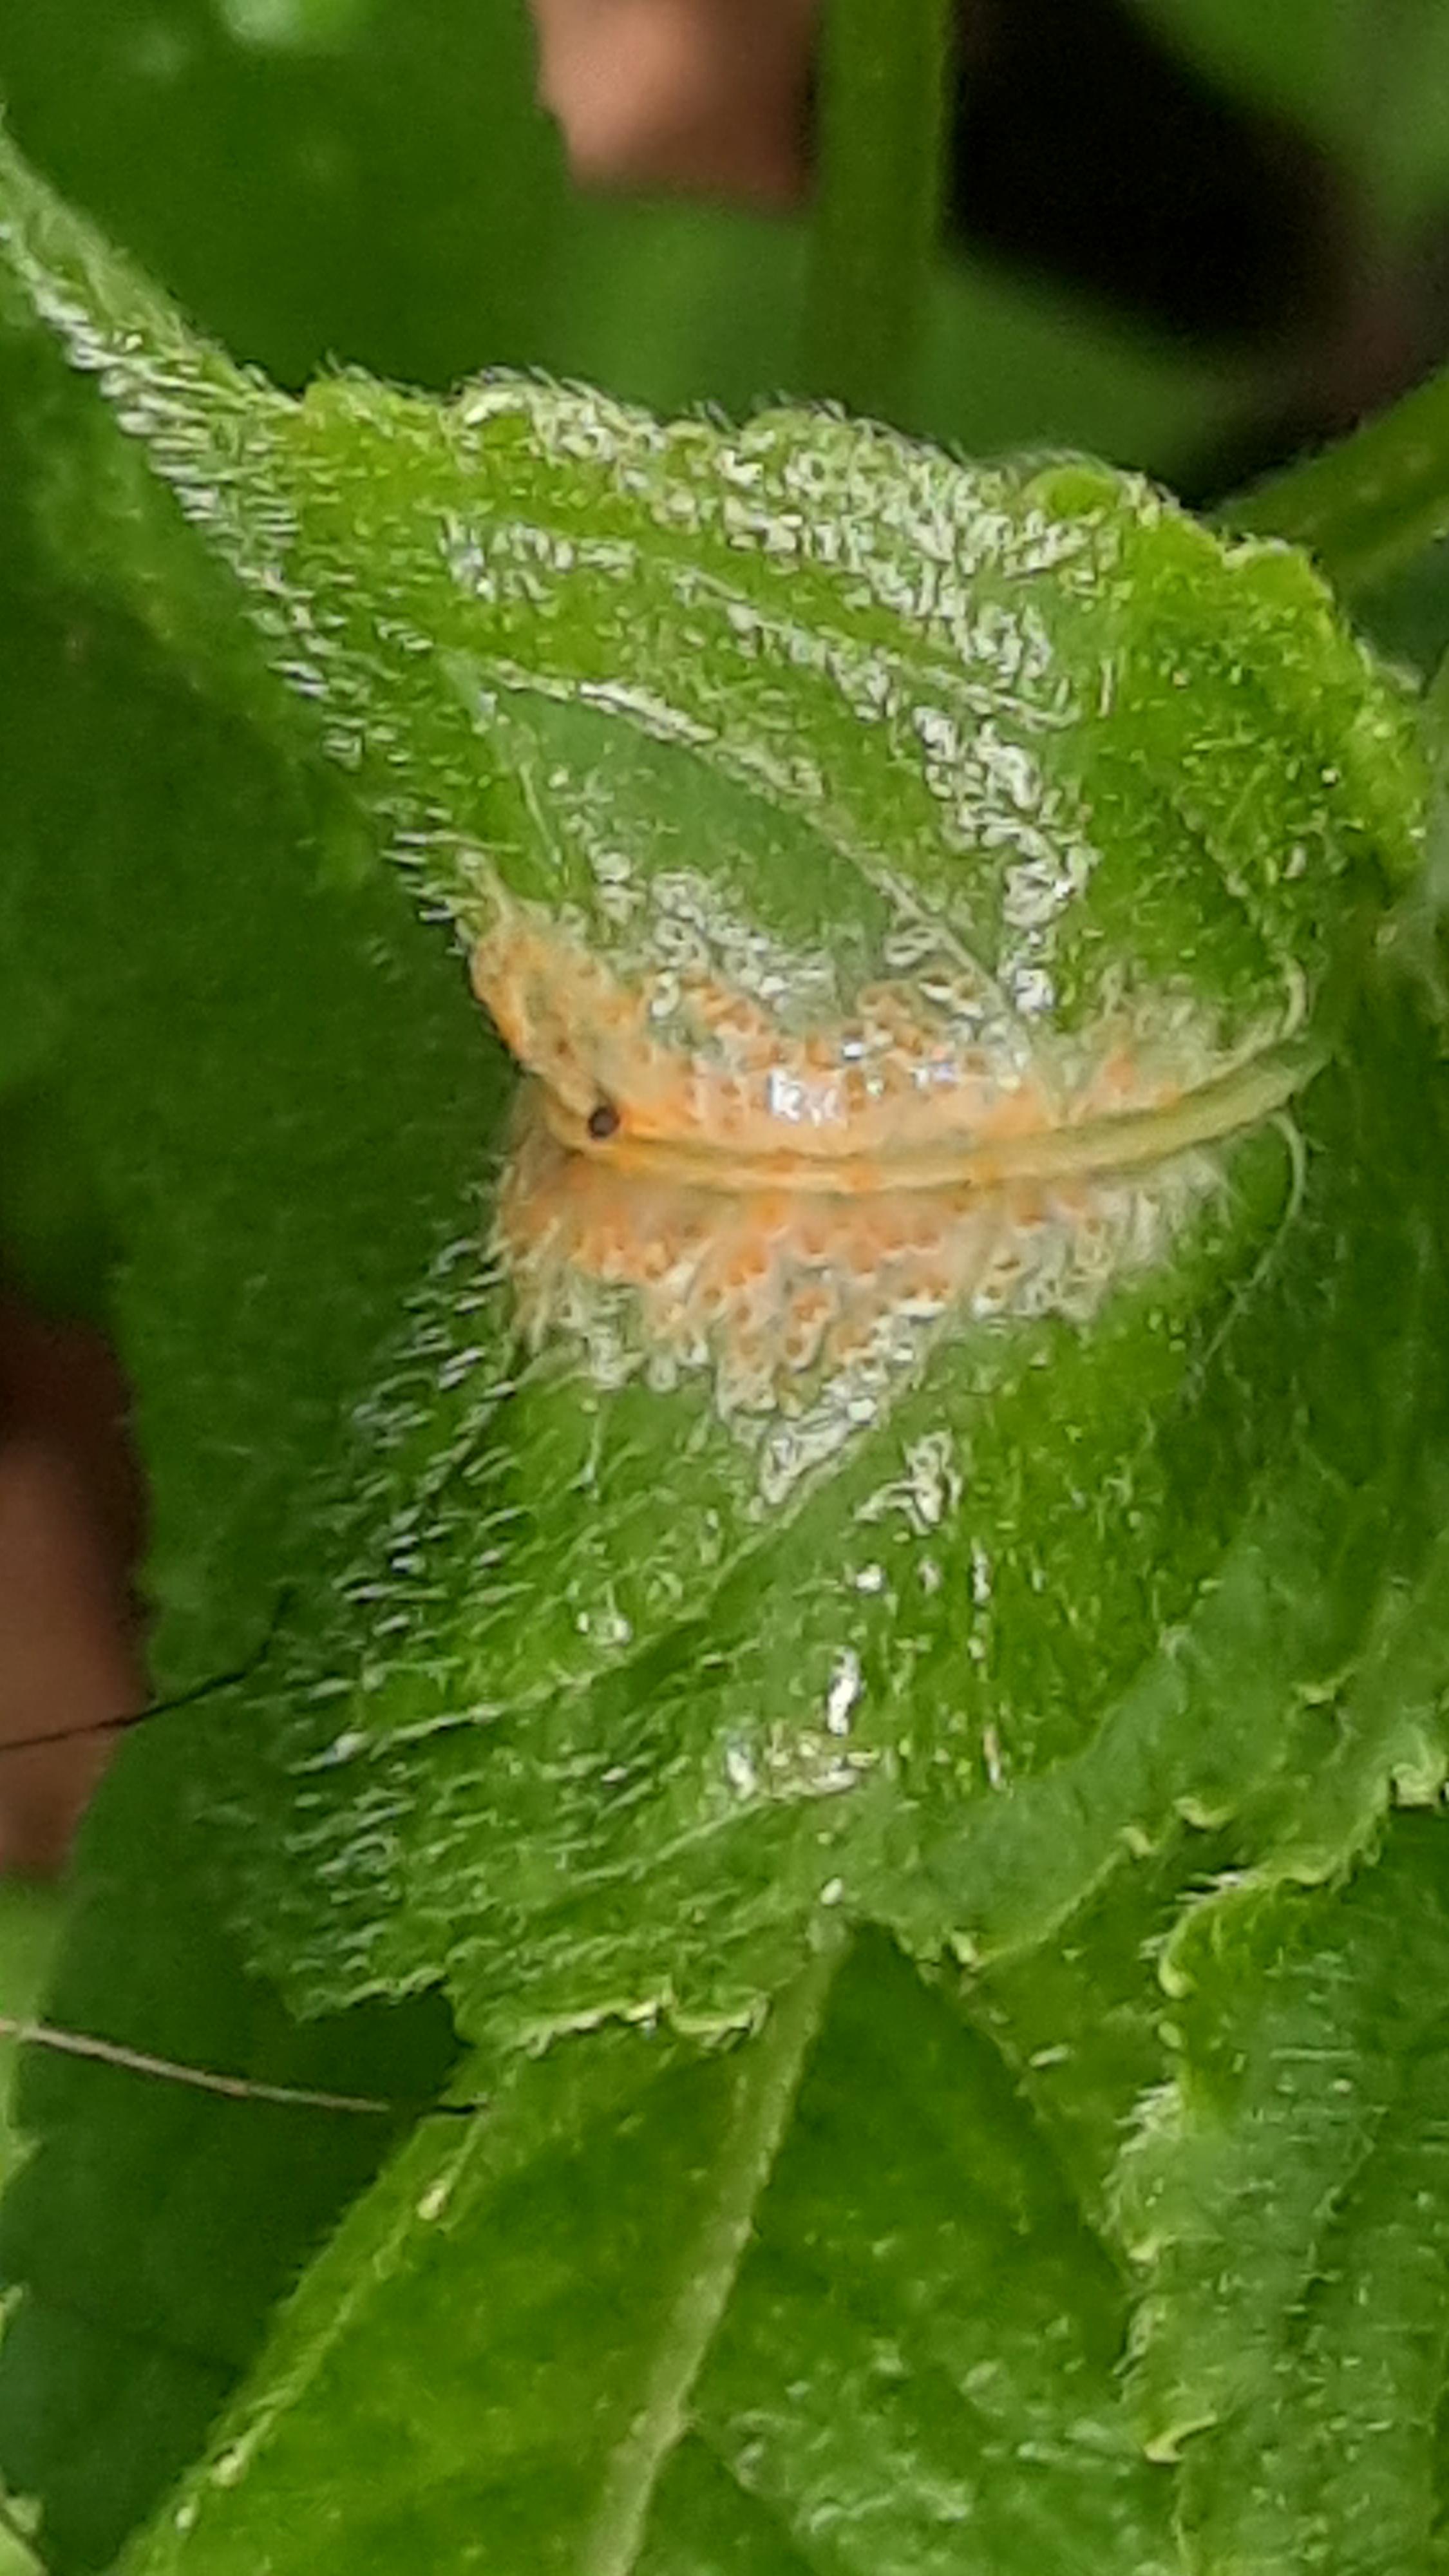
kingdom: Fungi
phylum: Basidiomycota
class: Pucciniomycetes
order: Pucciniales
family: Melampsoraceae
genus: Melampsora
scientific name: Melampsora
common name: skorperust
